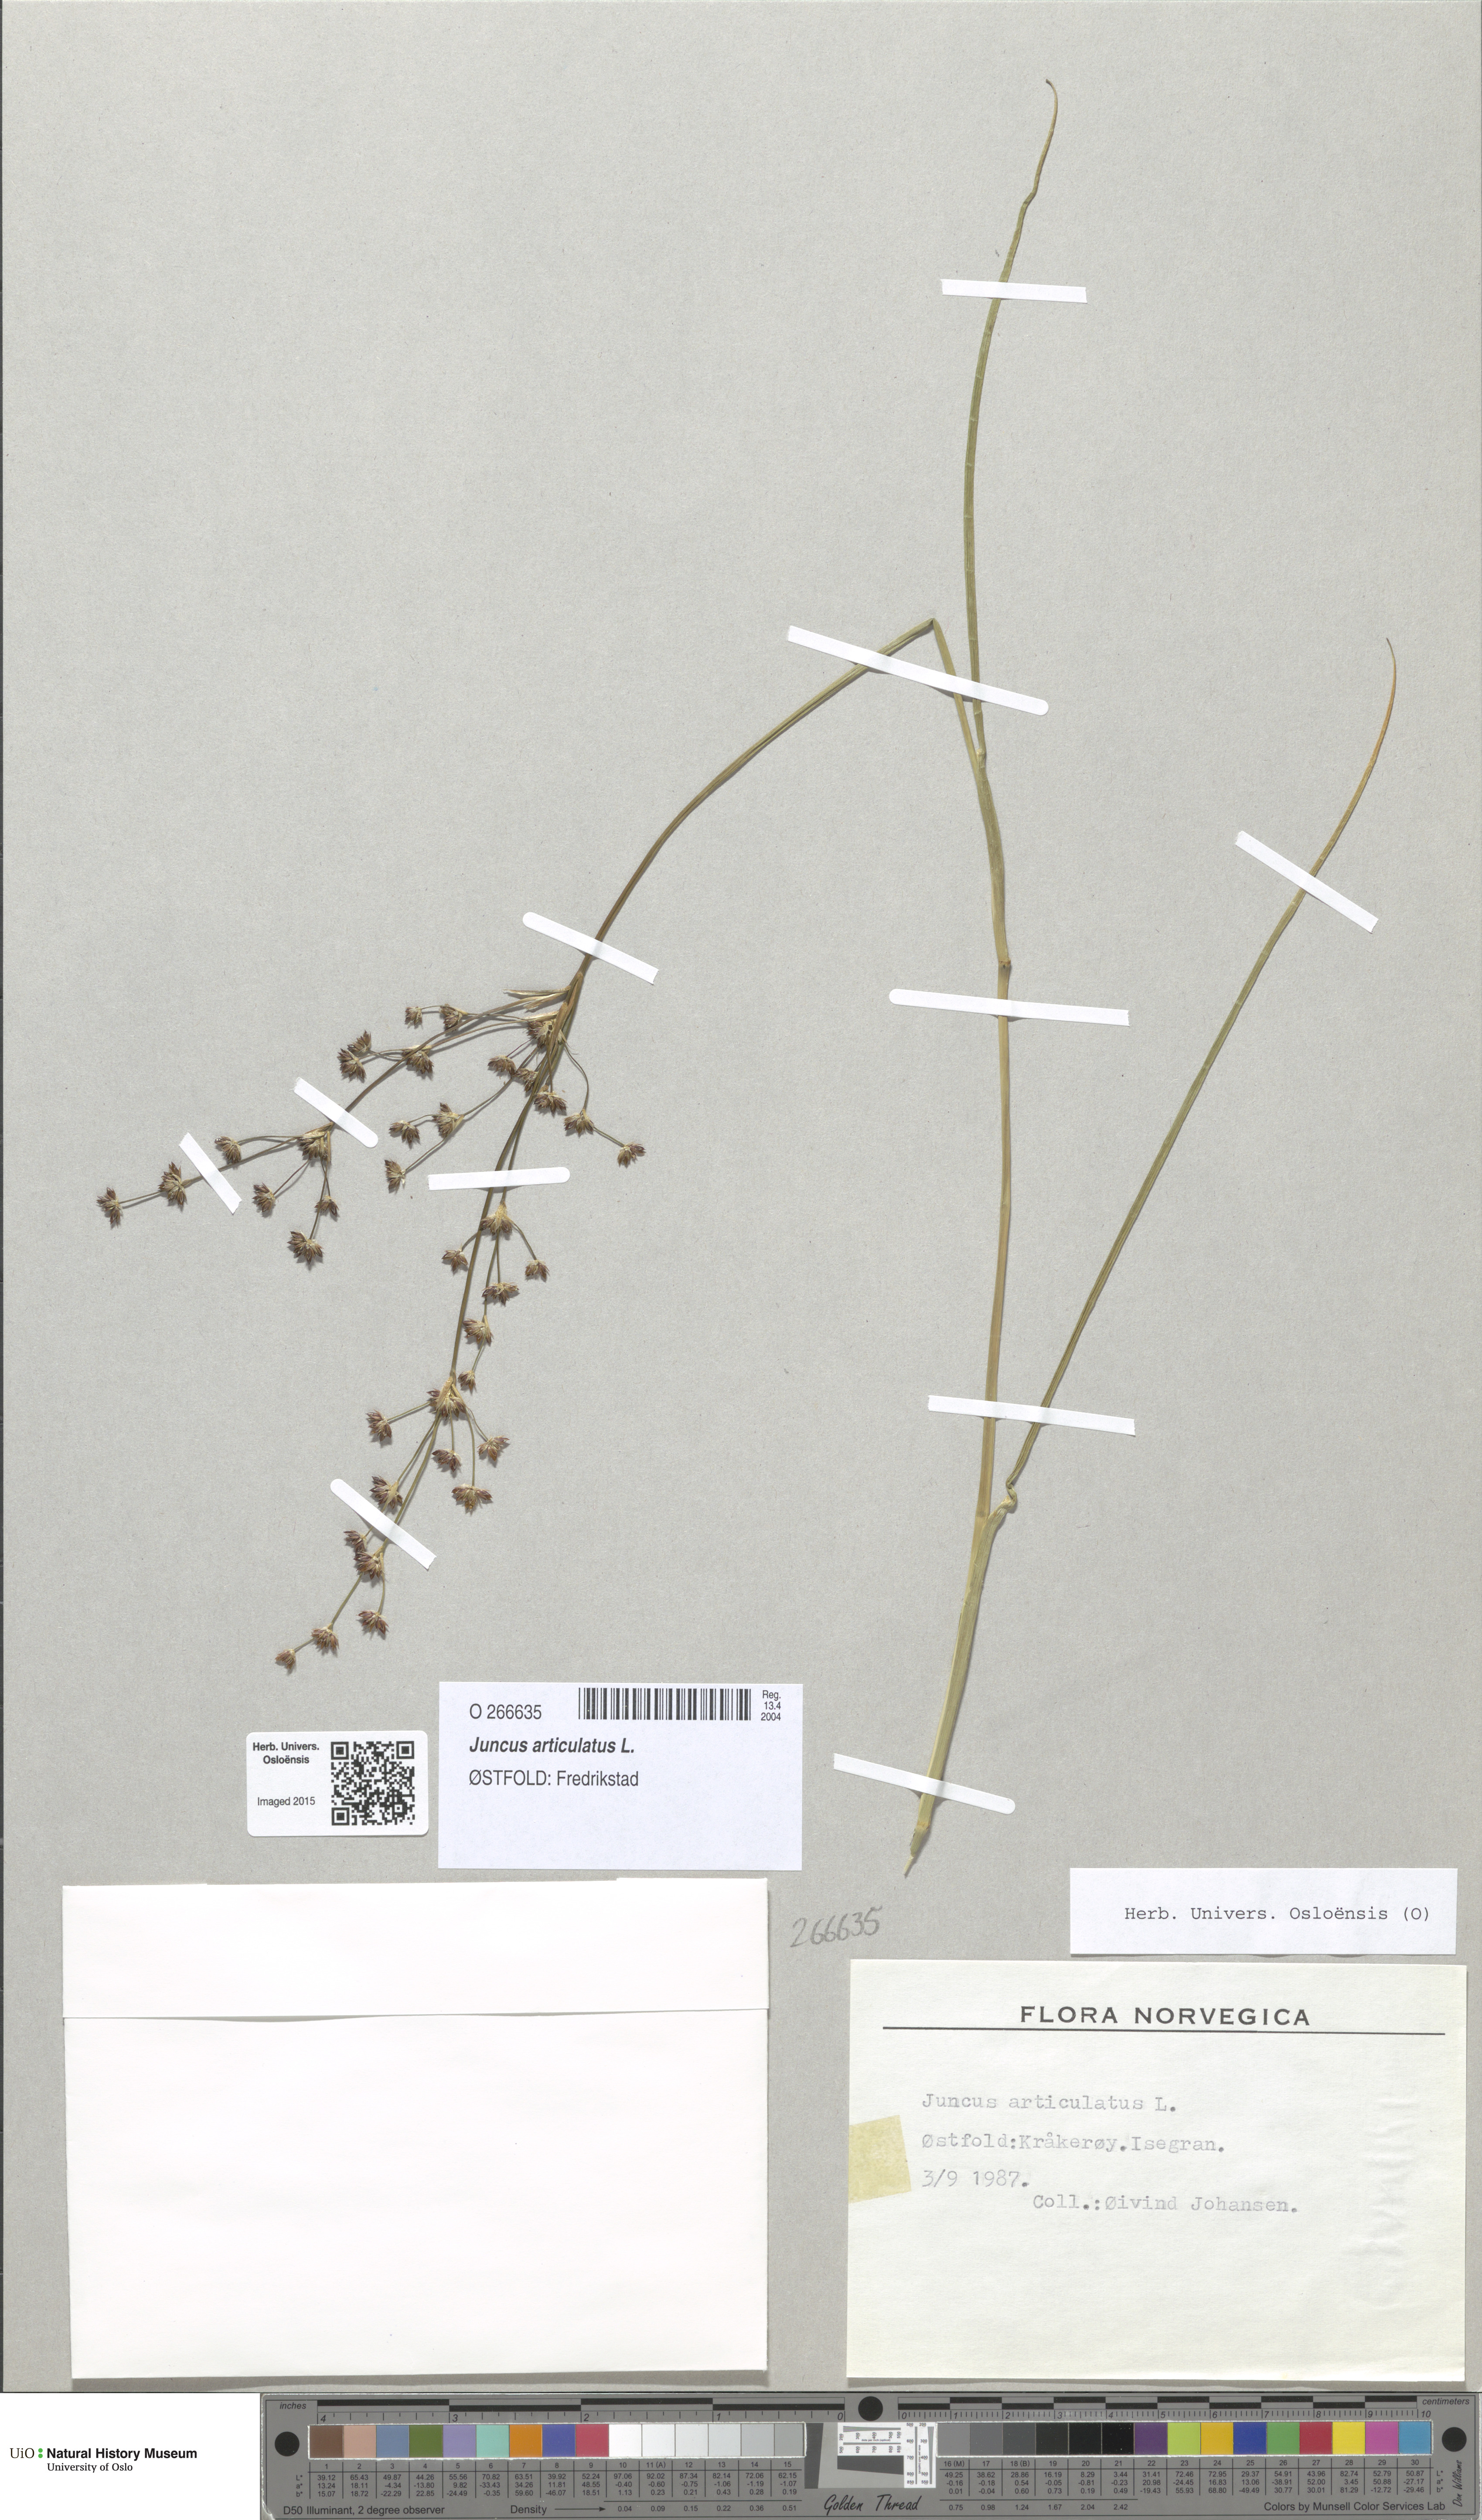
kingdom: Plantae
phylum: Tracheophyta
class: Liliopsida
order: Poales
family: Juncaceae
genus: Juncus
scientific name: Juncus articulatus
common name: Jointed rush
